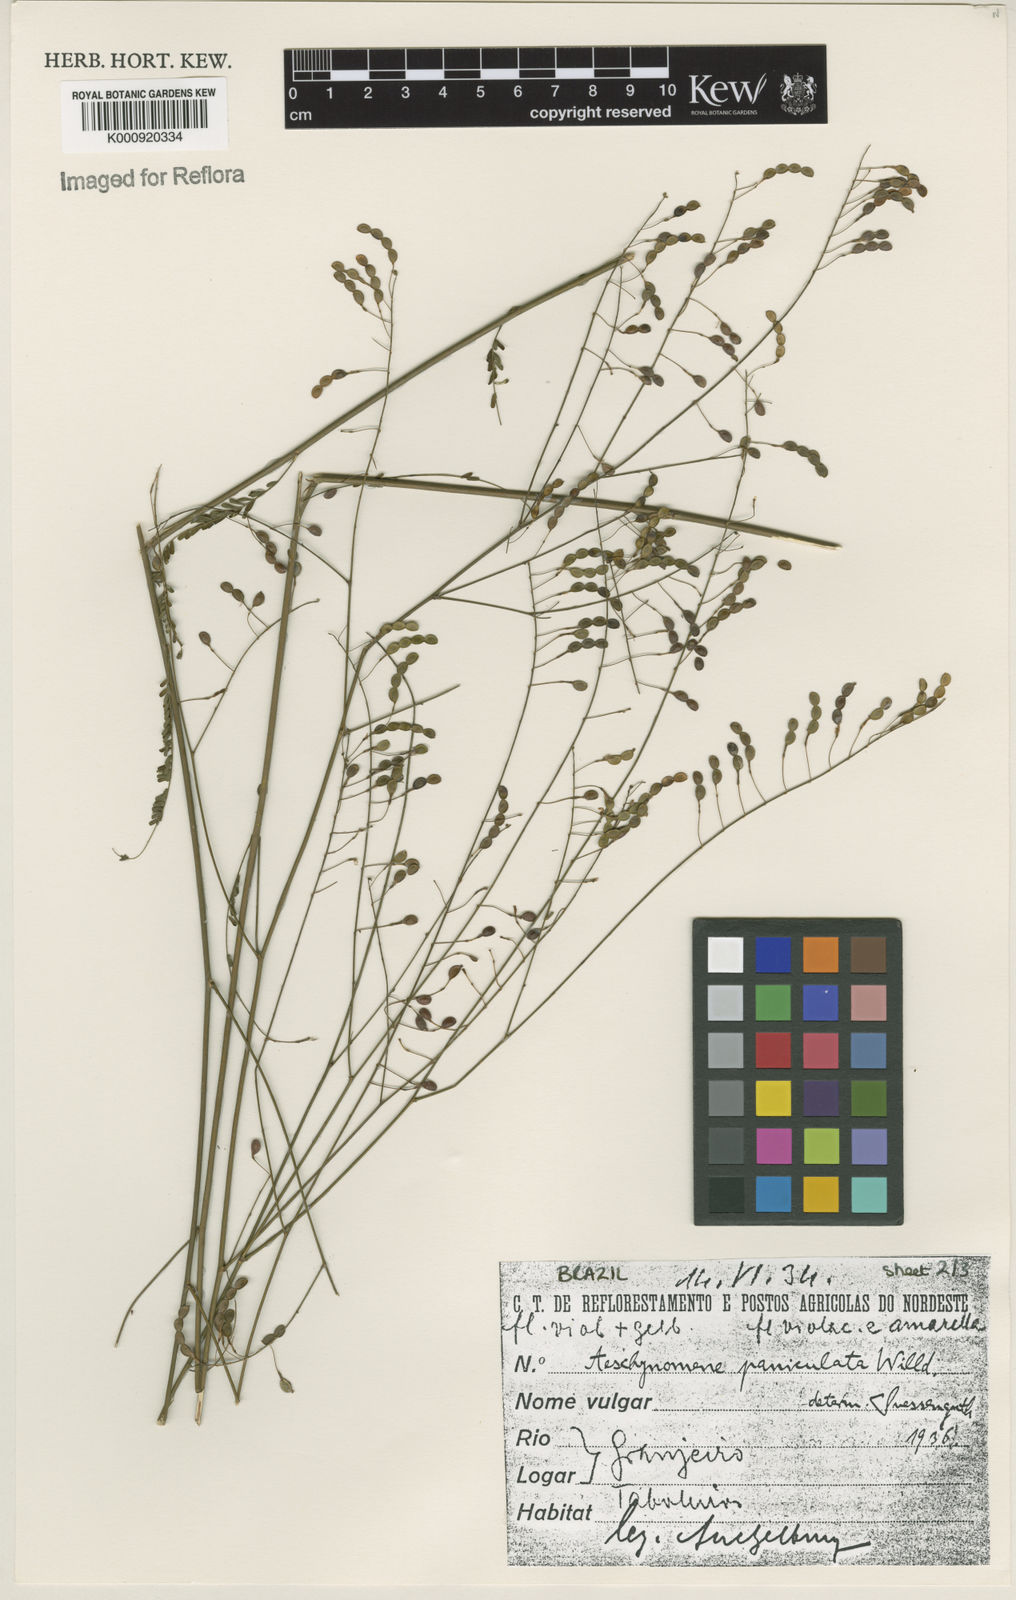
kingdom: Plantae
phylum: Tracheophyta
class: Magnoliopsida
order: Fabales
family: Fabaceae
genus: Ctenodon
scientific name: Ctenodon paniculatus
